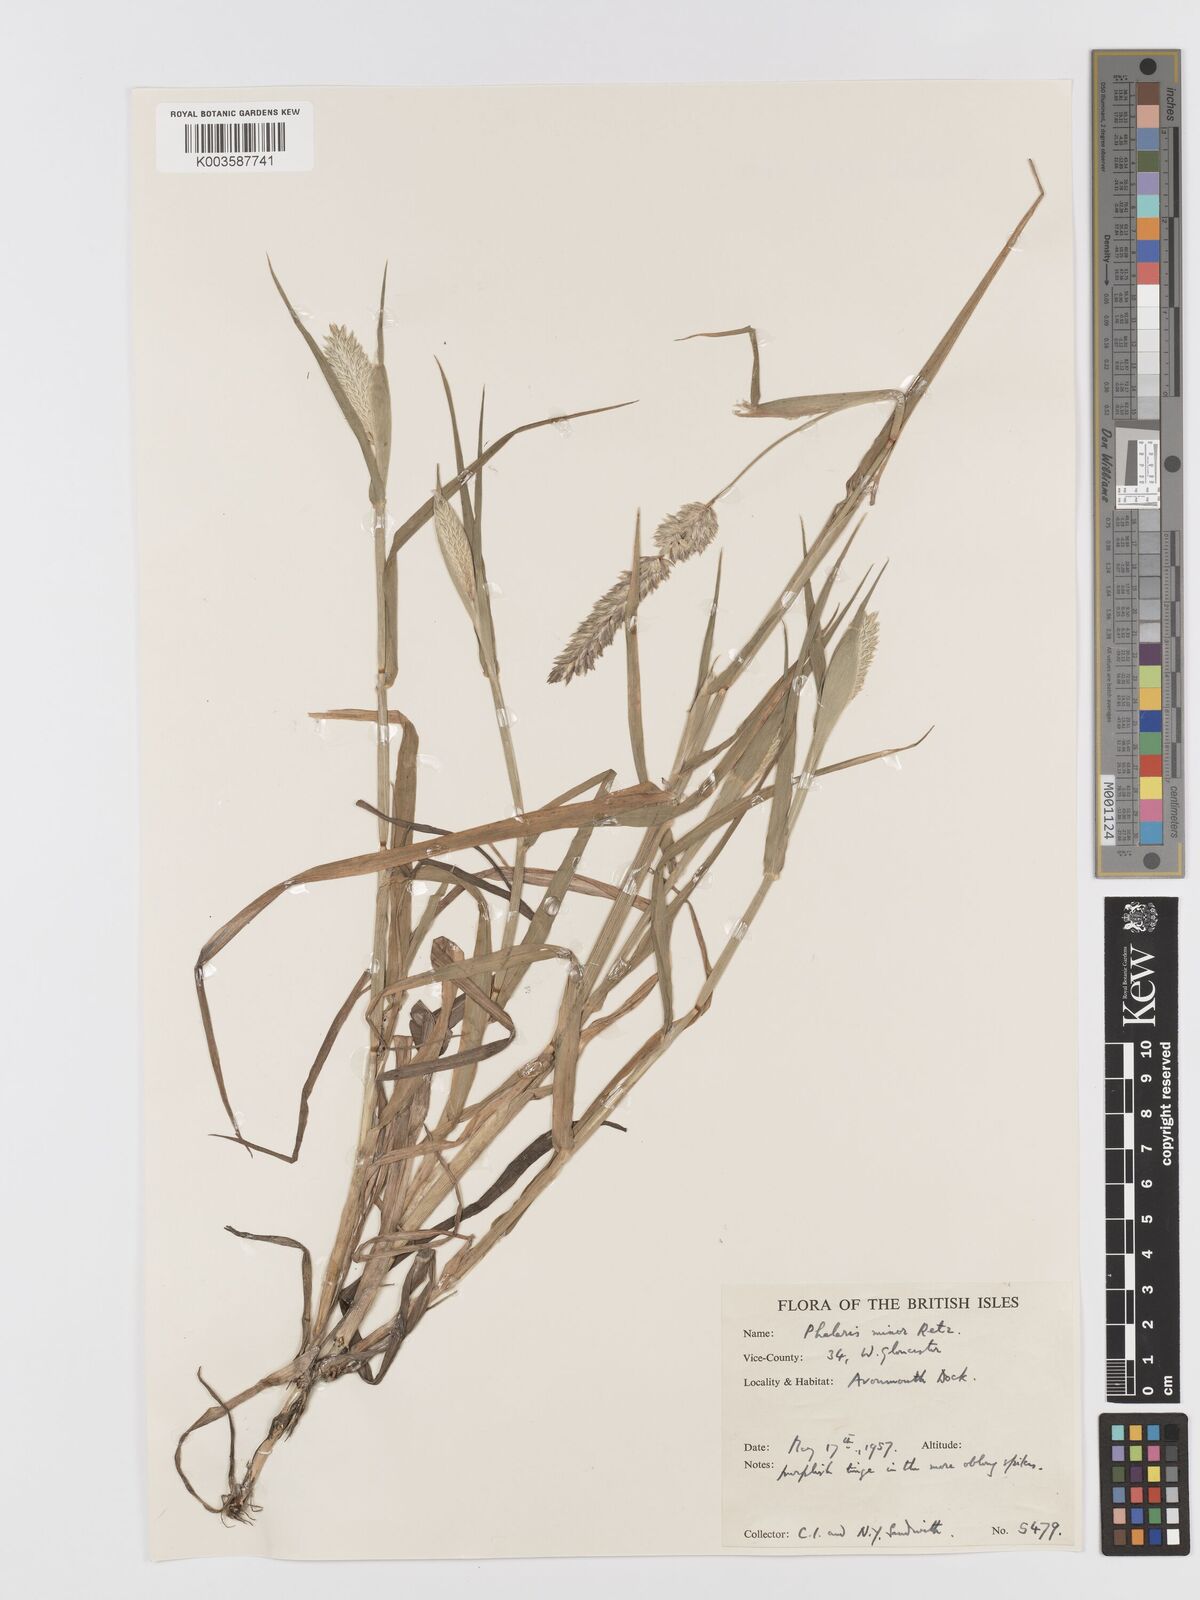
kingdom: Plantae
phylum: Tracheophyta
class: Liliopsida
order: Poales
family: Poaceae
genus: Phalaris
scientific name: Phalaris minor
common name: Littleseed canarygrass
